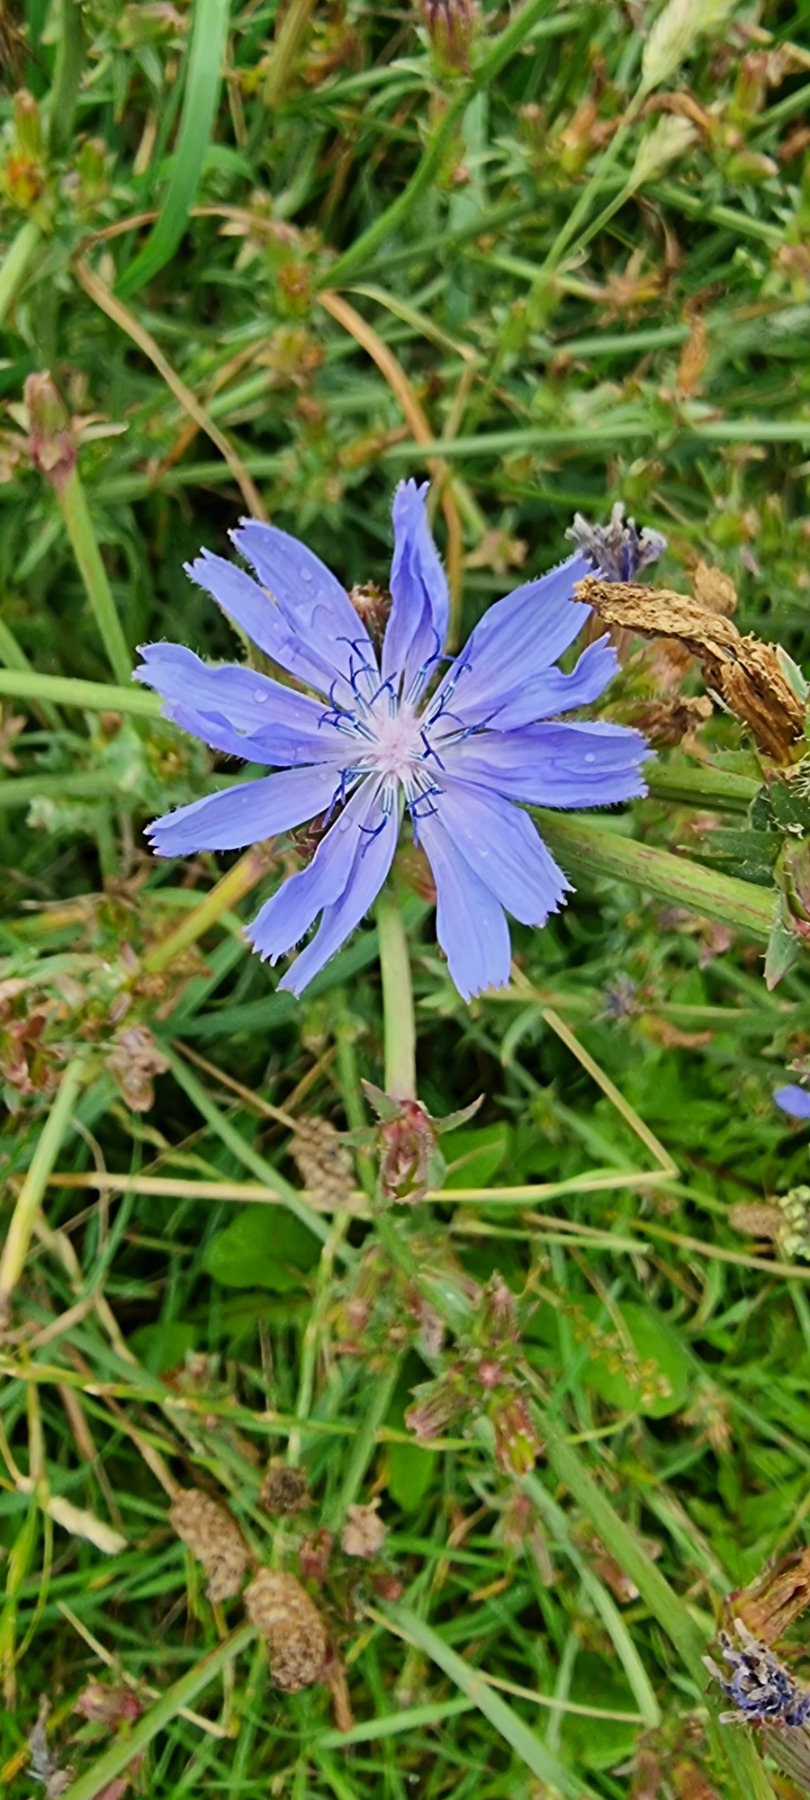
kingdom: Plantae
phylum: Tracheophyta
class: Magnoliopsida
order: Asterales
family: Asteraceae
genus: Cichorium
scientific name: Cichorium intybus
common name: Cikorie
